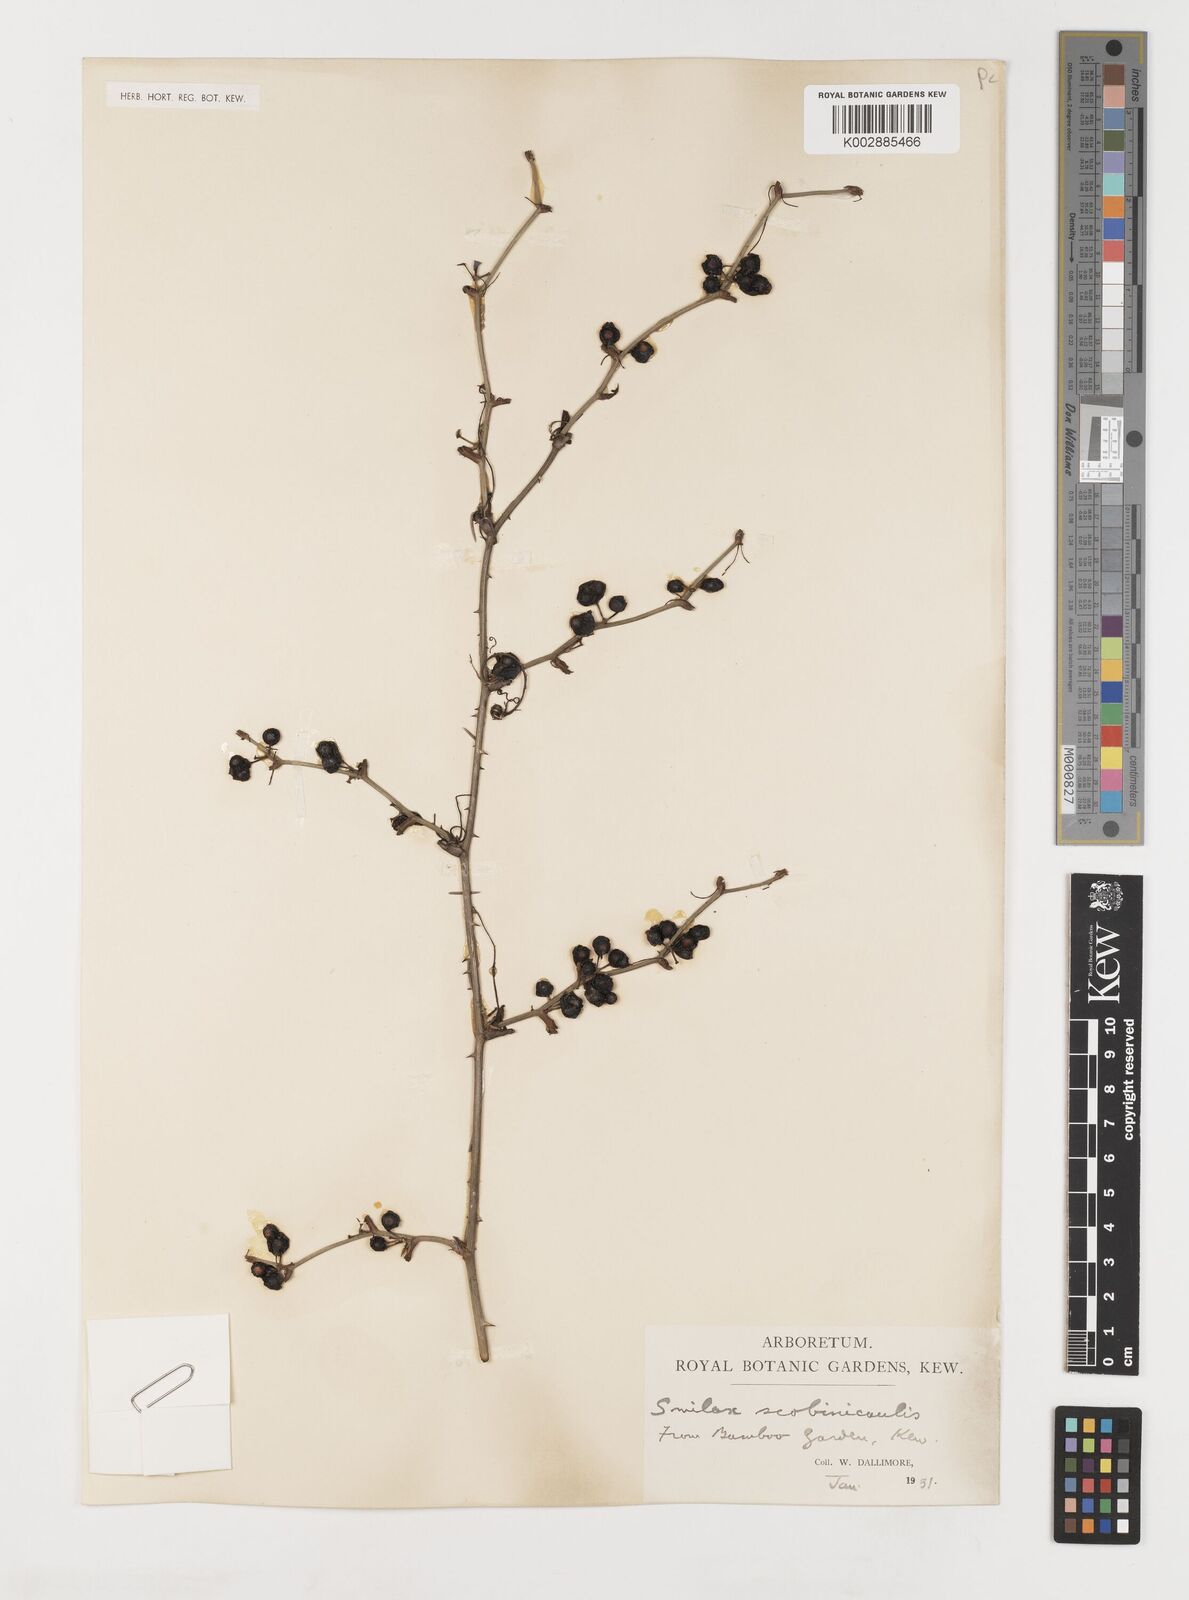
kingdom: Plantae
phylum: Tracheophyta
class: Liliopsida
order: Liliales
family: Smilacaceae
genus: Smilax
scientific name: Smilax scobinicaulis
